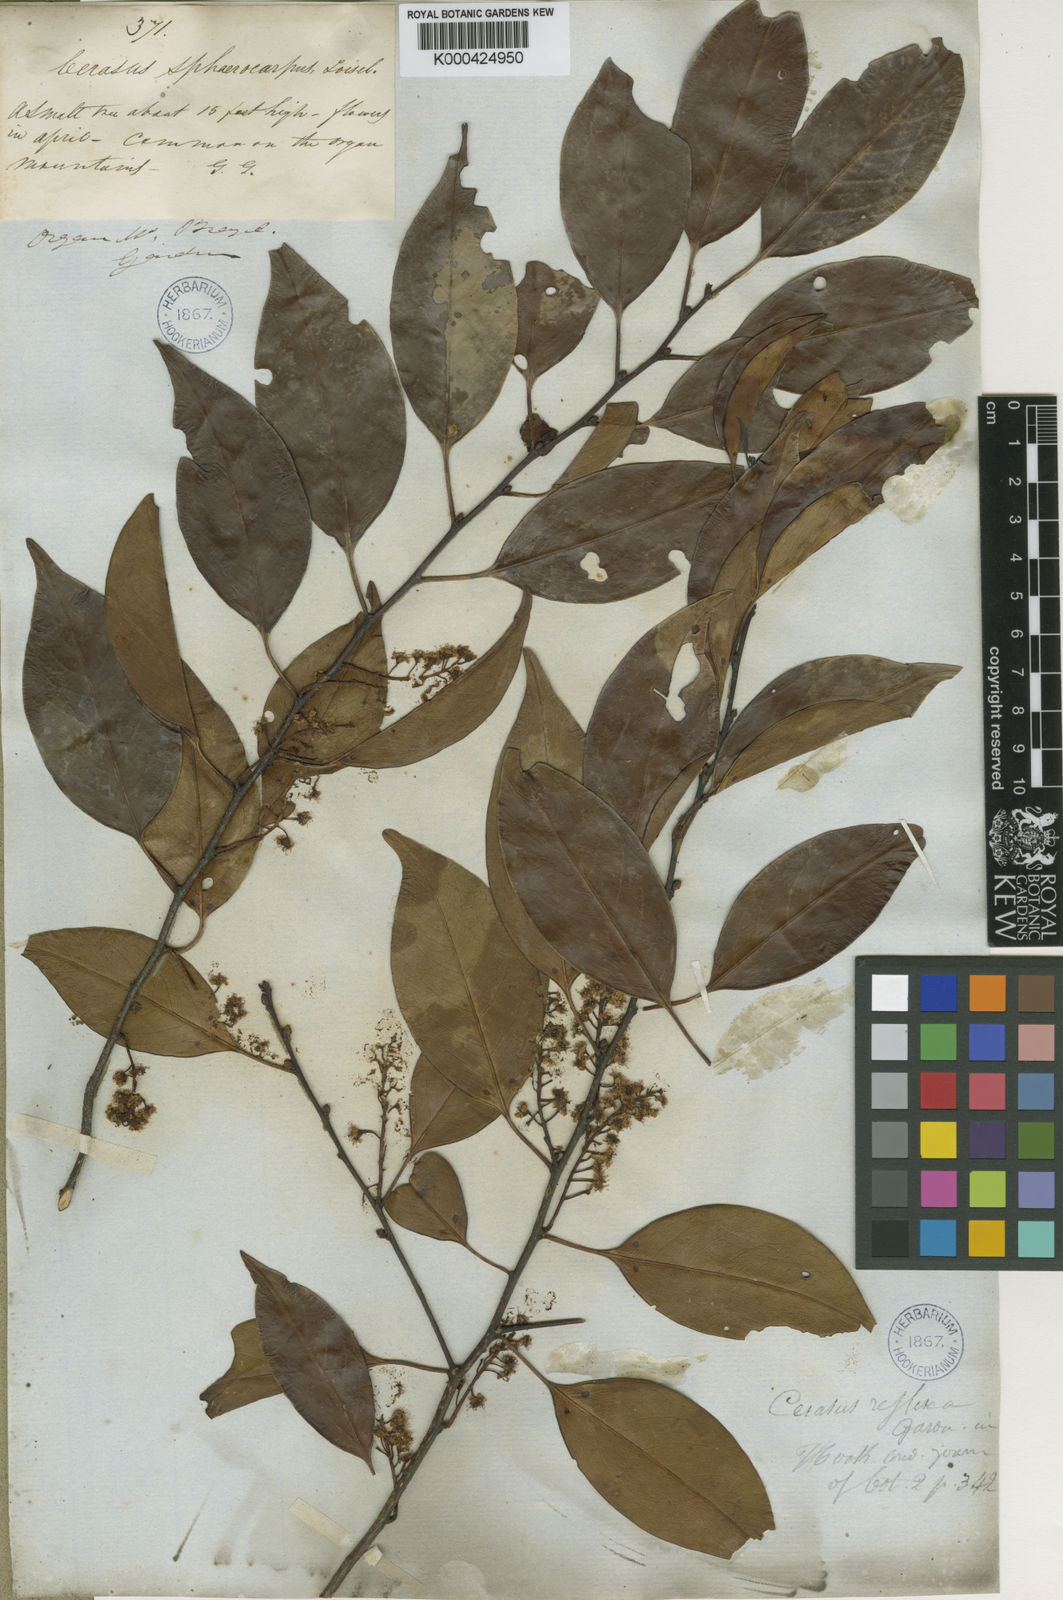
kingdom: Plantae
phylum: Tracheophyta
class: Magnoliopsida
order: Rosales
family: Rosaceae
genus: Prunus
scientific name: Prunus reflexa
